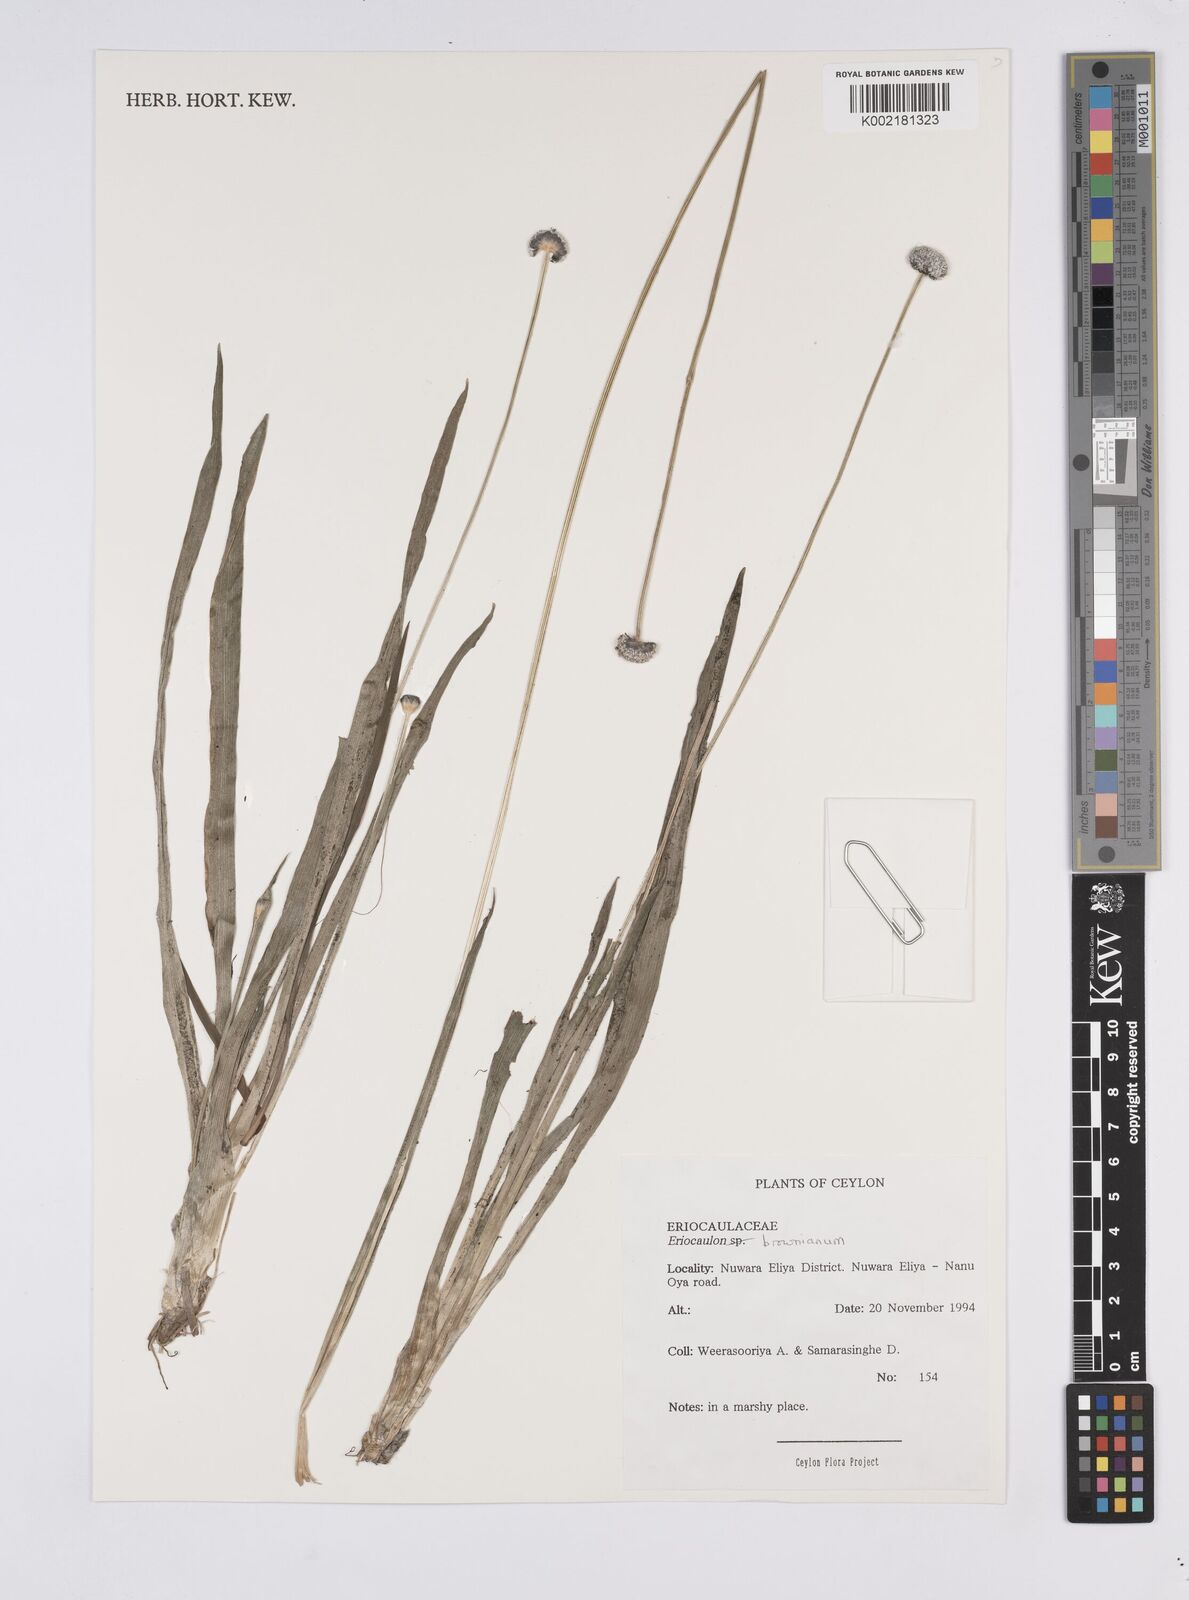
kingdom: Plantae
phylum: Tracheophyta
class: Liliopsida
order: Poales
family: Eriocaulaceae
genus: Eriocaulon
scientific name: Eriocaulon brownianum
